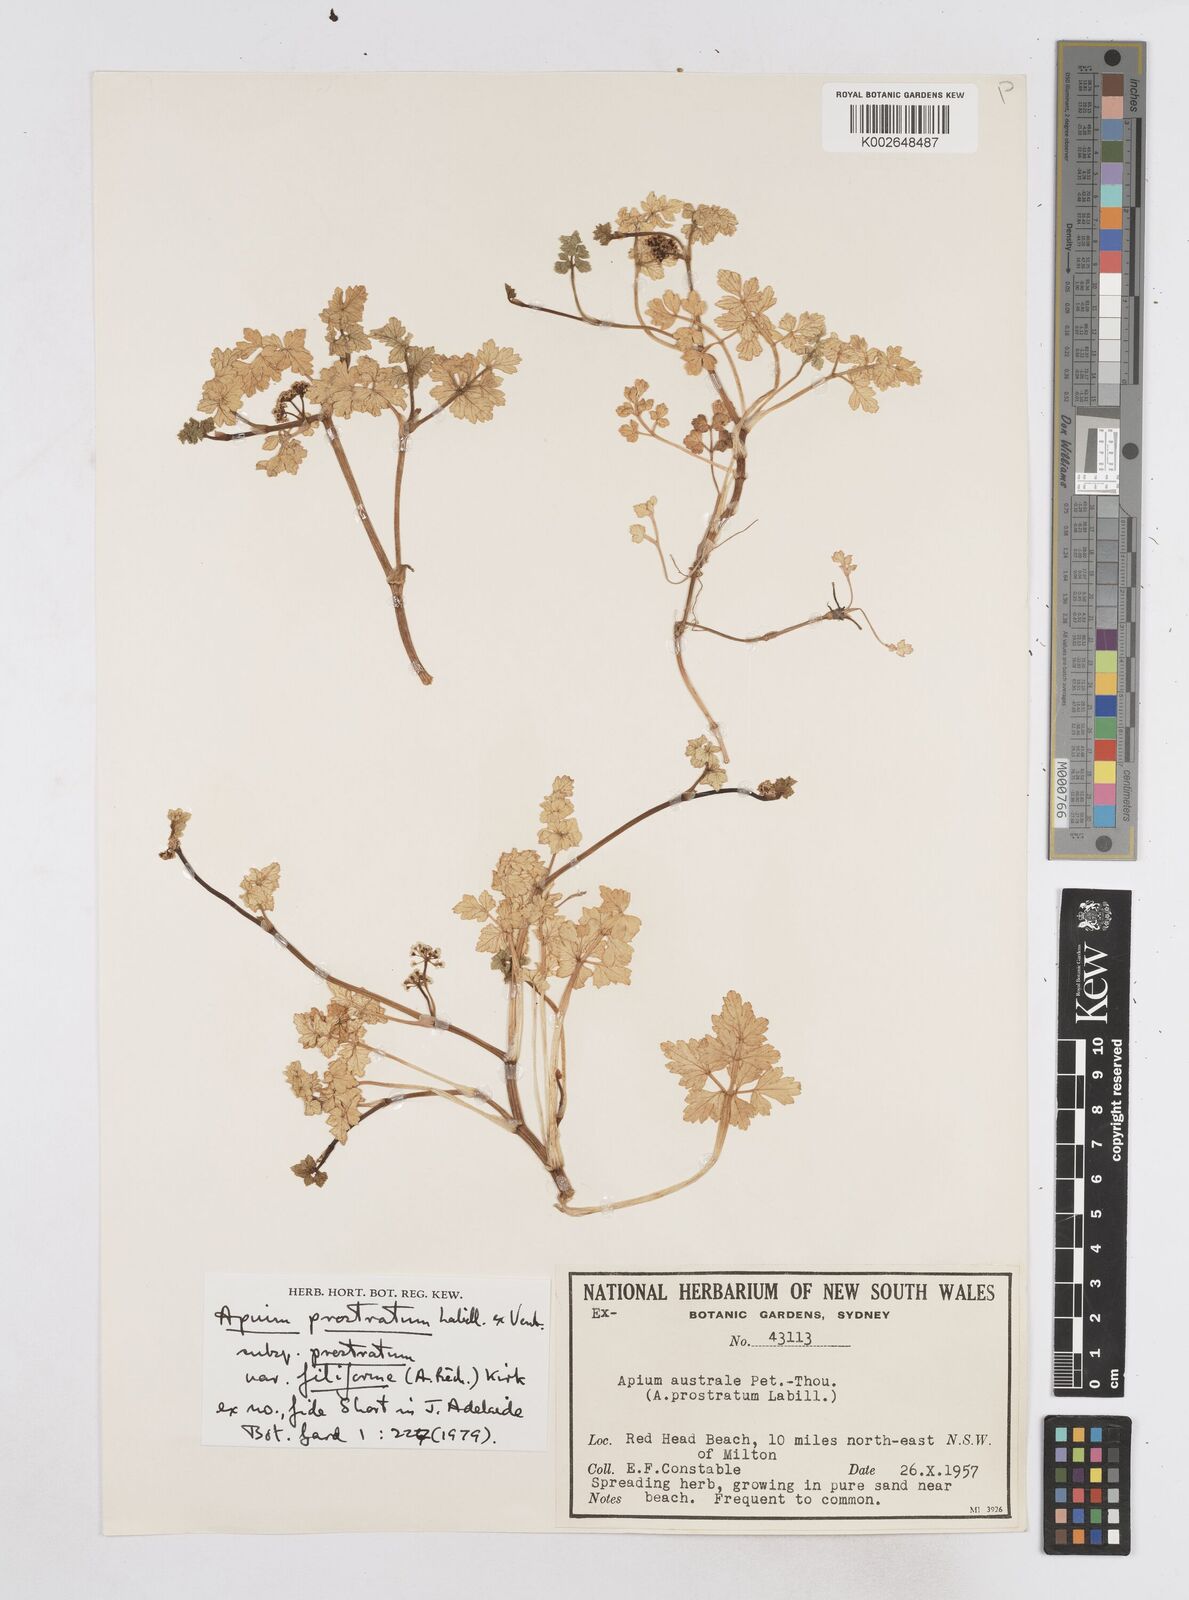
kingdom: Plantae
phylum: Tracheophyta
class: Magnoliopsida
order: Apiales
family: Apiaceae
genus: Apium
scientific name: Apium prostratum
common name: Prostrate marshwort
